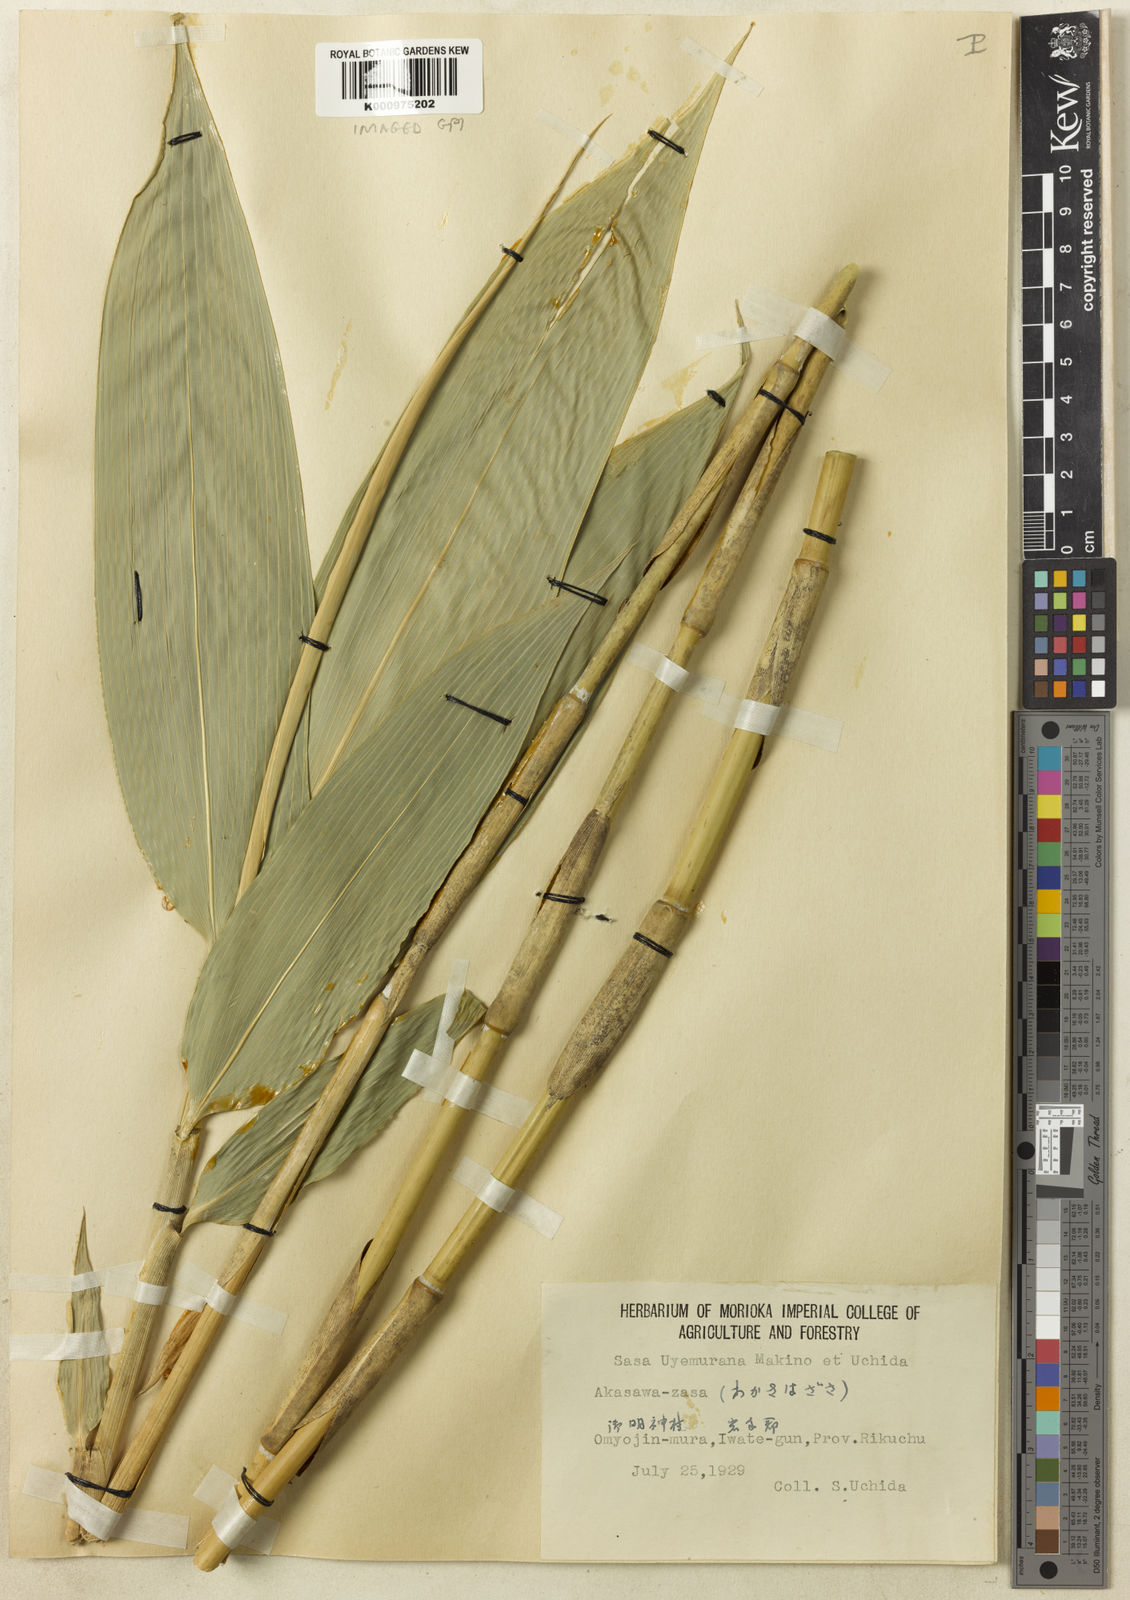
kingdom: Plantae
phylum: Tracheophyta
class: Liliopsida
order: Poales
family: Poaceae
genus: Sasa
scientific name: Sasa tatewakiana
